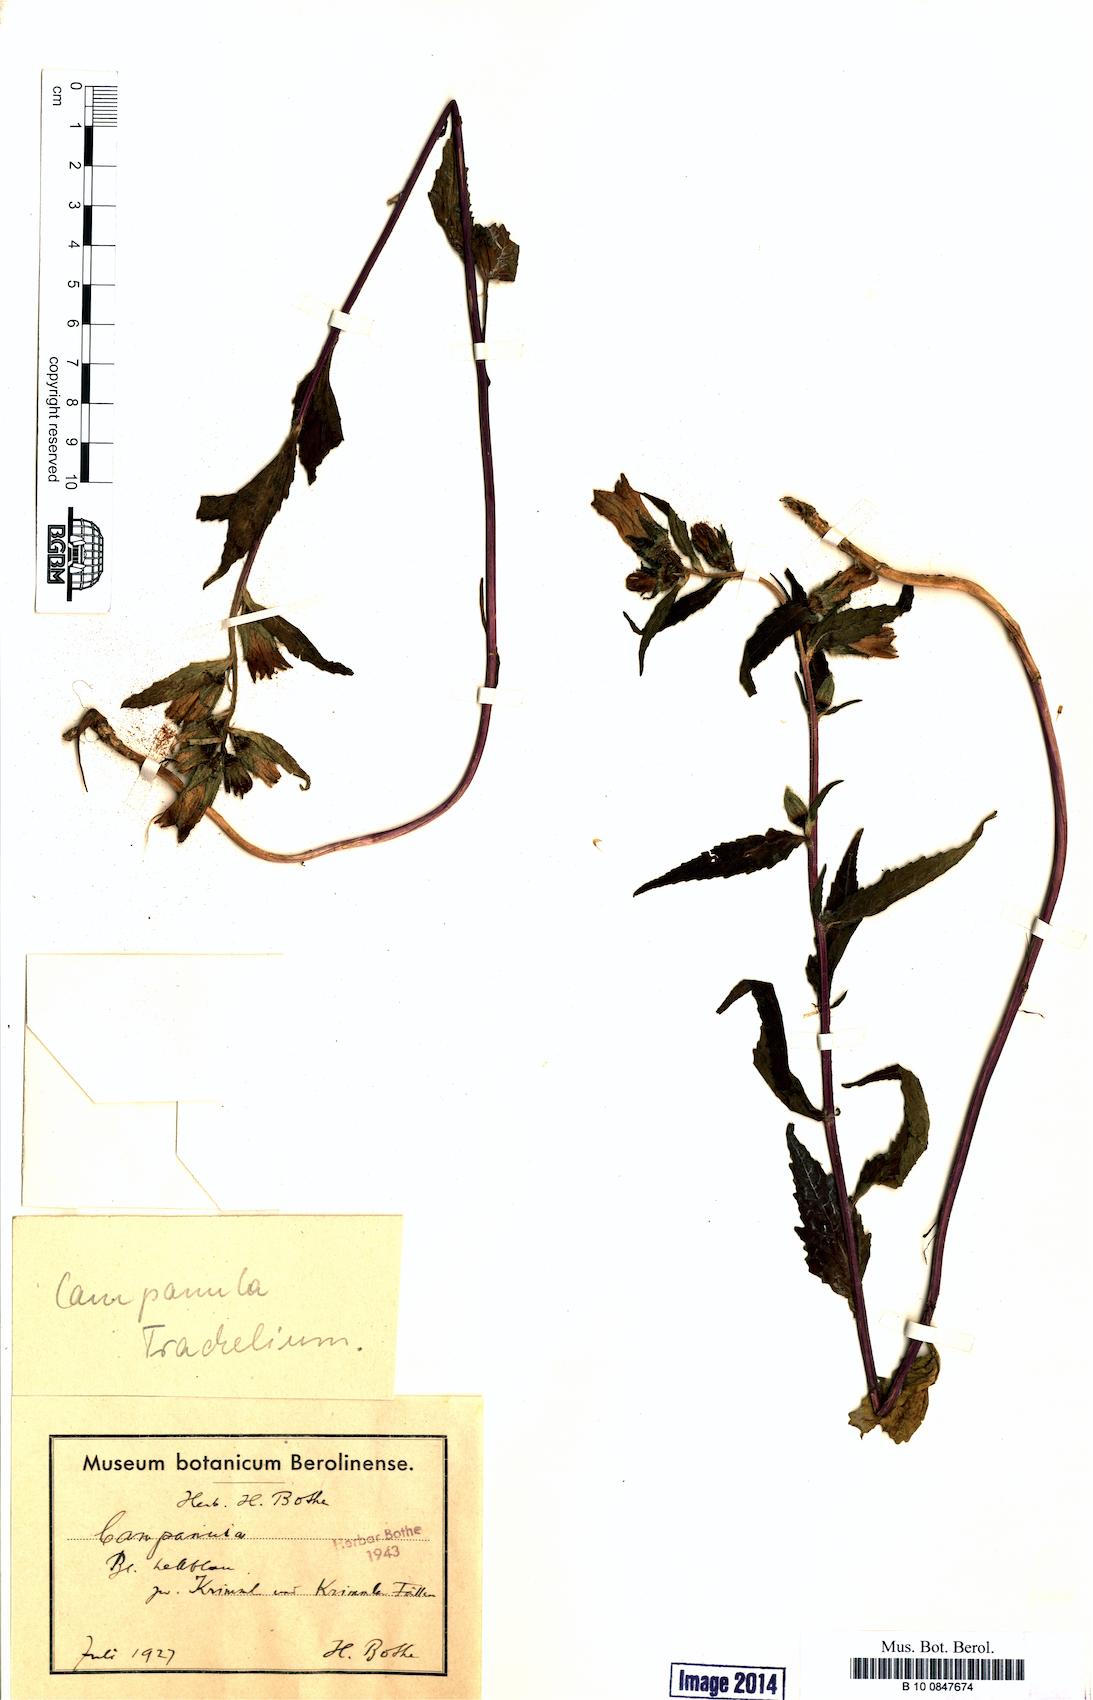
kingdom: Plantae
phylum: Tracheophyta
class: Magnoliopsida
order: Asterales
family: Campanulaceae
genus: Campanula
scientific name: Campanula trachelium
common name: Nettle-leaved bellflower
